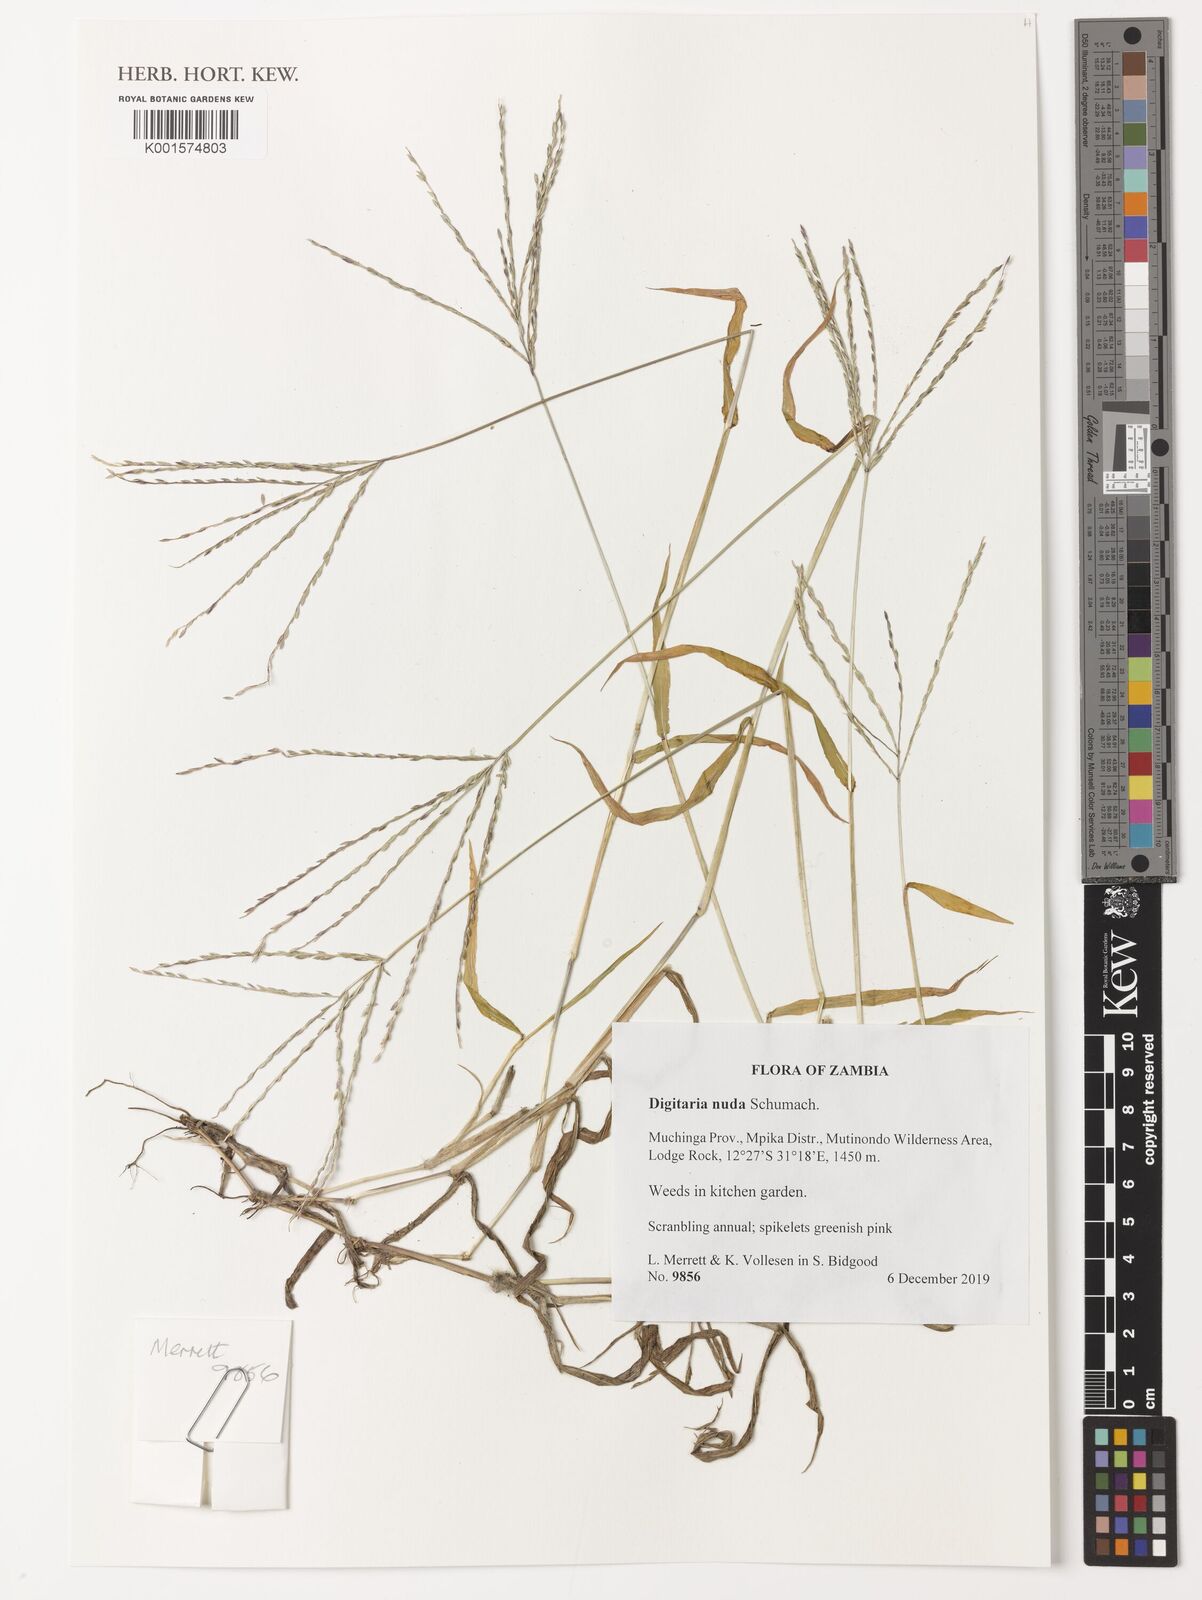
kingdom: Plantae
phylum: Tracheophyta
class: Liliopsida
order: Poales
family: Poaceae
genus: Digitaria
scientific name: Digitaria nuda
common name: Naked crabgrass
